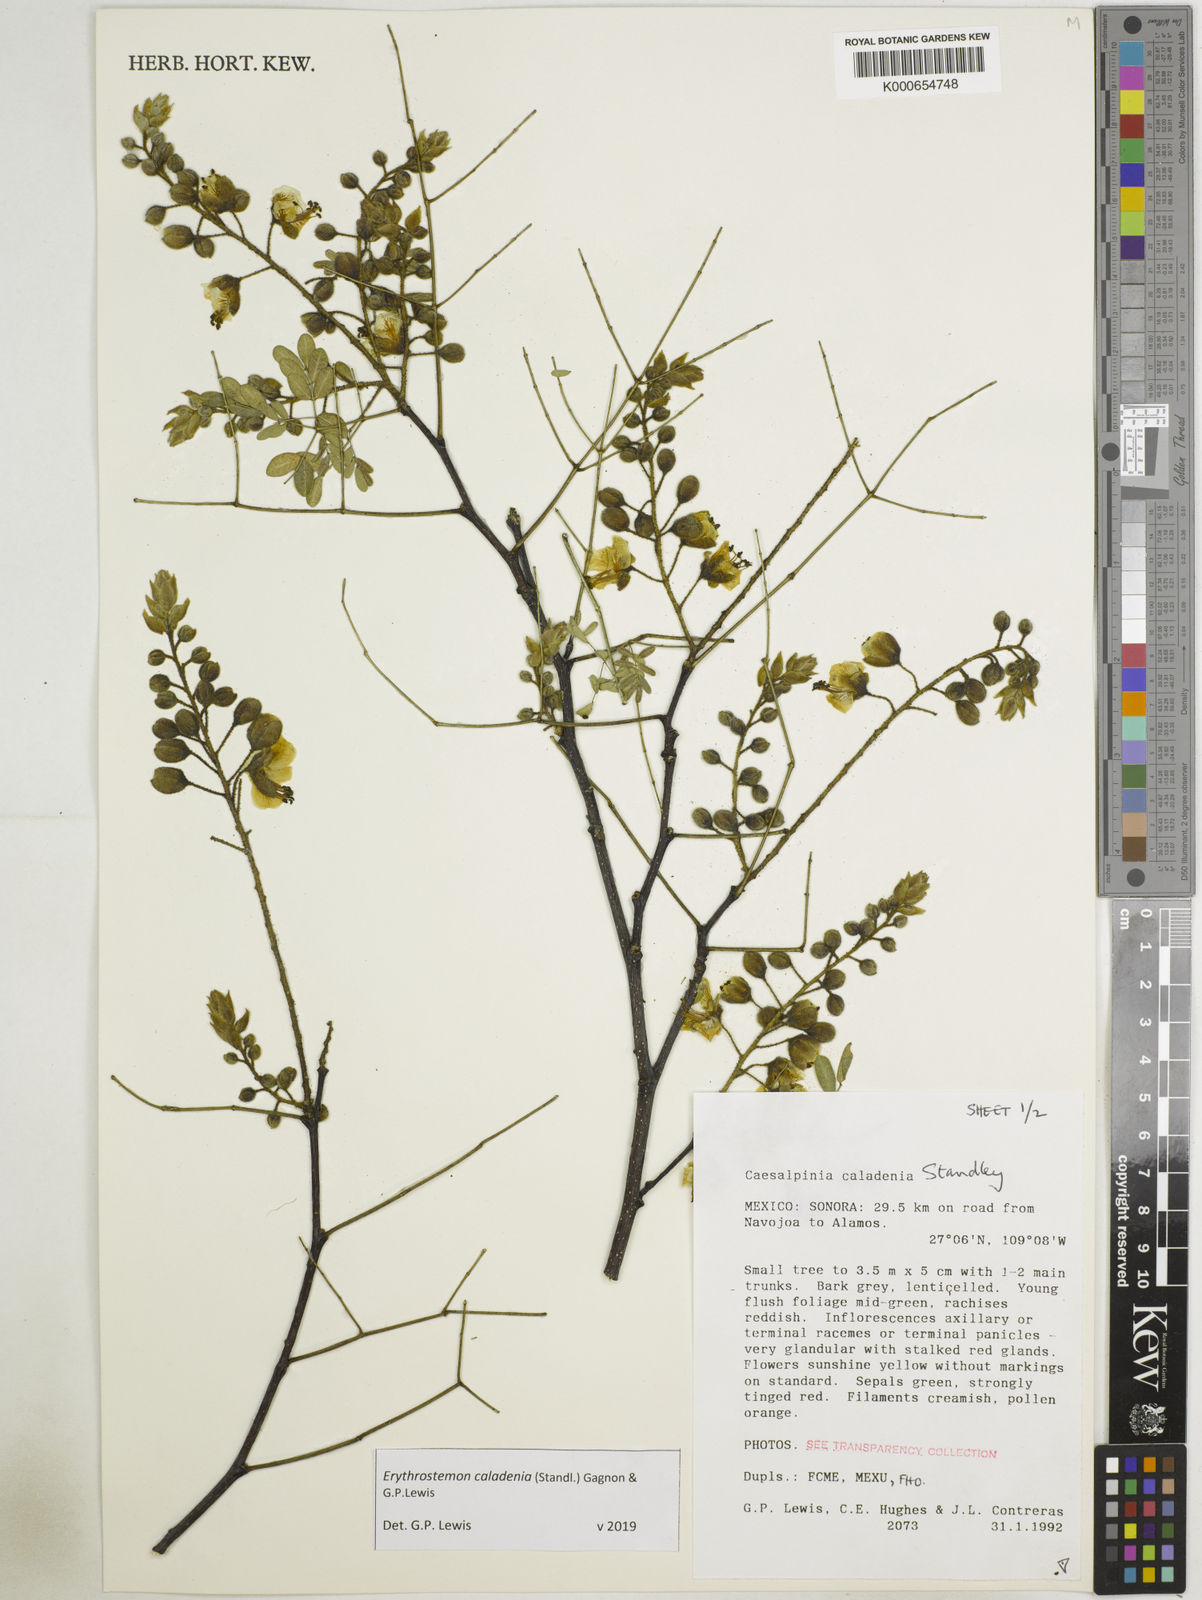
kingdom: Plantae
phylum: Tracheophyta
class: Magnoliopsida
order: Fabales
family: Fabaceae
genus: Erythrostemon
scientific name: Erythrostemon caladenia
